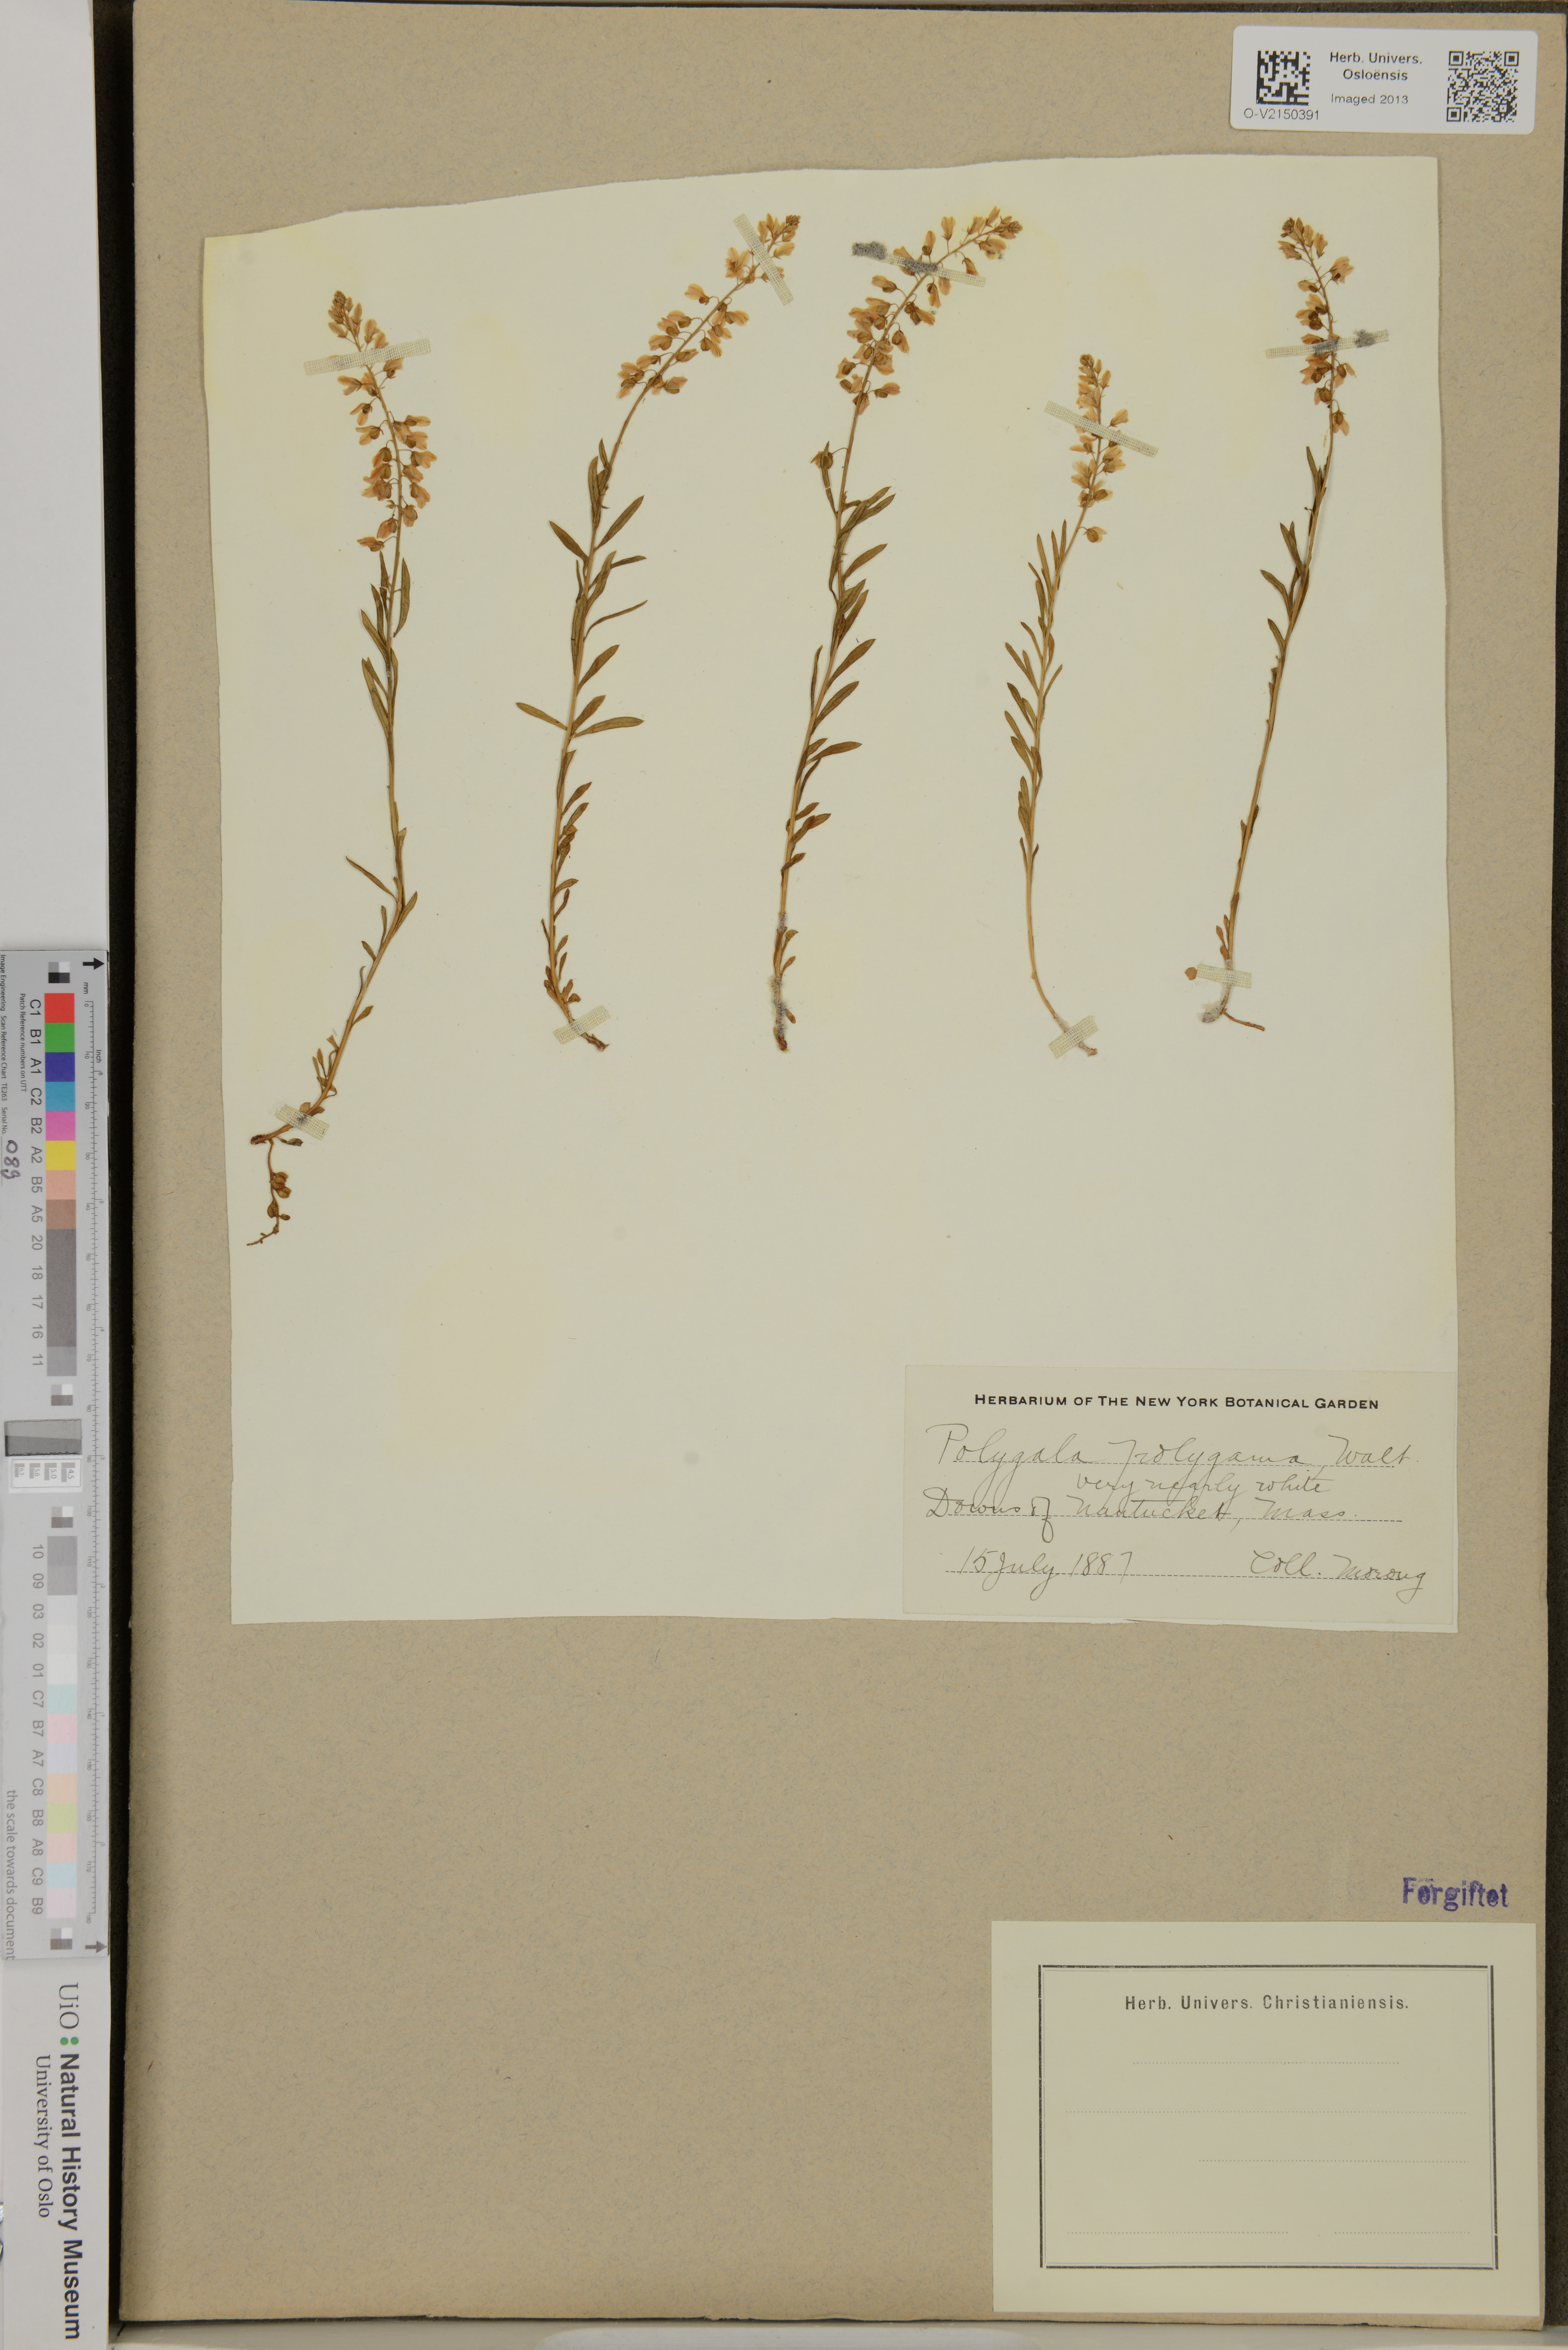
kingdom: Plantae
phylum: Tracheophyta
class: Magnoliopsida
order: Fabales
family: Polygalaceae
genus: Polygala
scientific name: Polygala polygama
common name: Bitter milkwort
